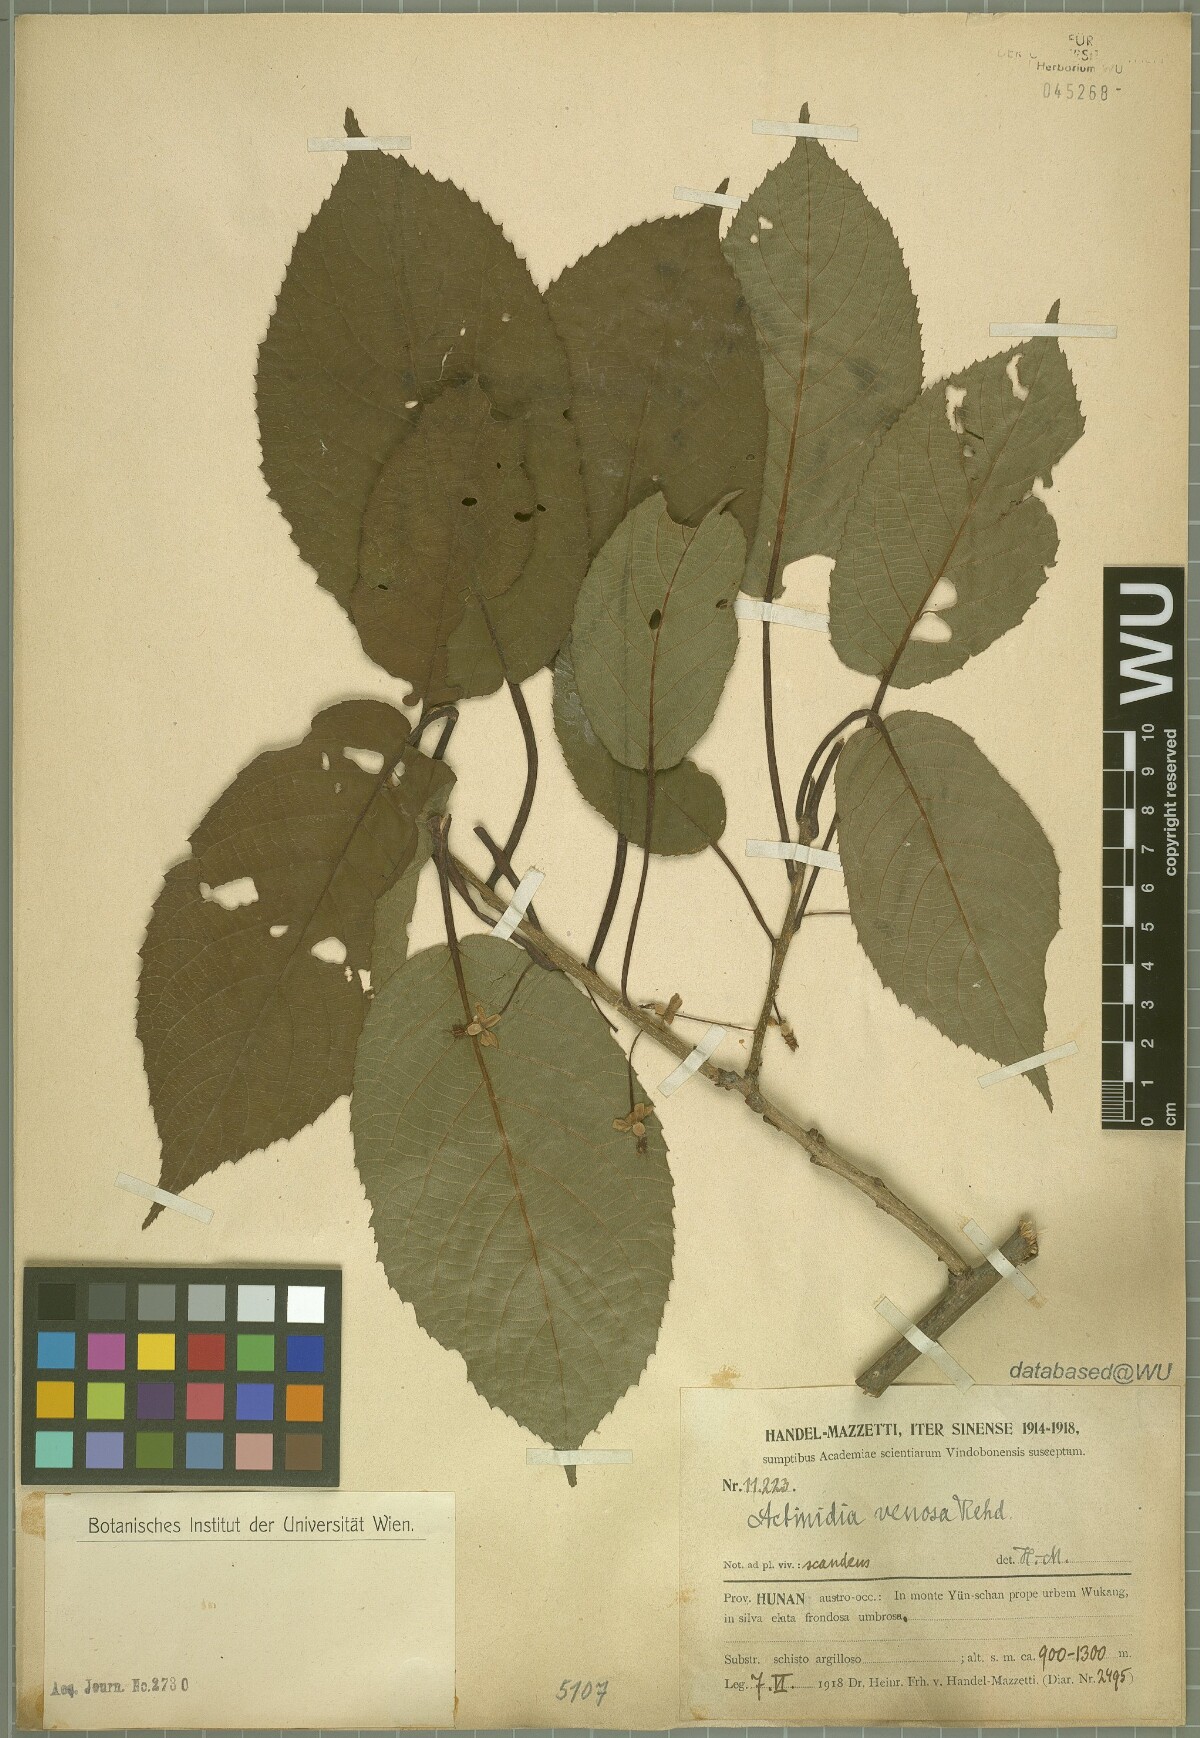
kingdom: Plantae
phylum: Tracheophyta
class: Magnoliopsida
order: Ericales
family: Actinidiaceae
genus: Actinidia
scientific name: Actinidia venosa
